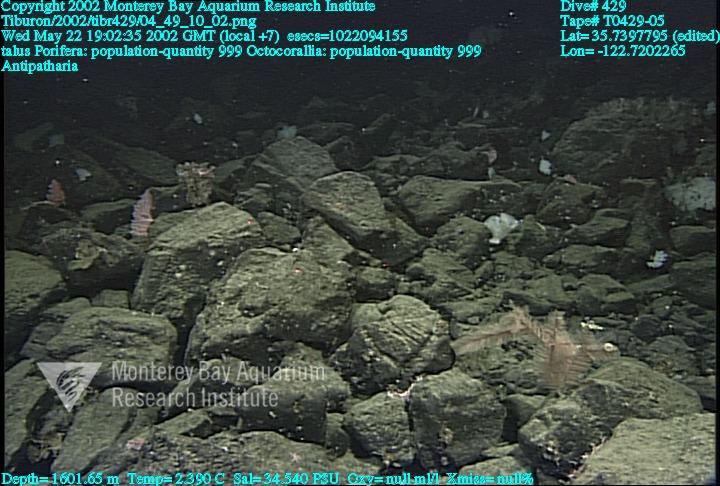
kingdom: Animalia
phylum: Porifera
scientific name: Porifera
